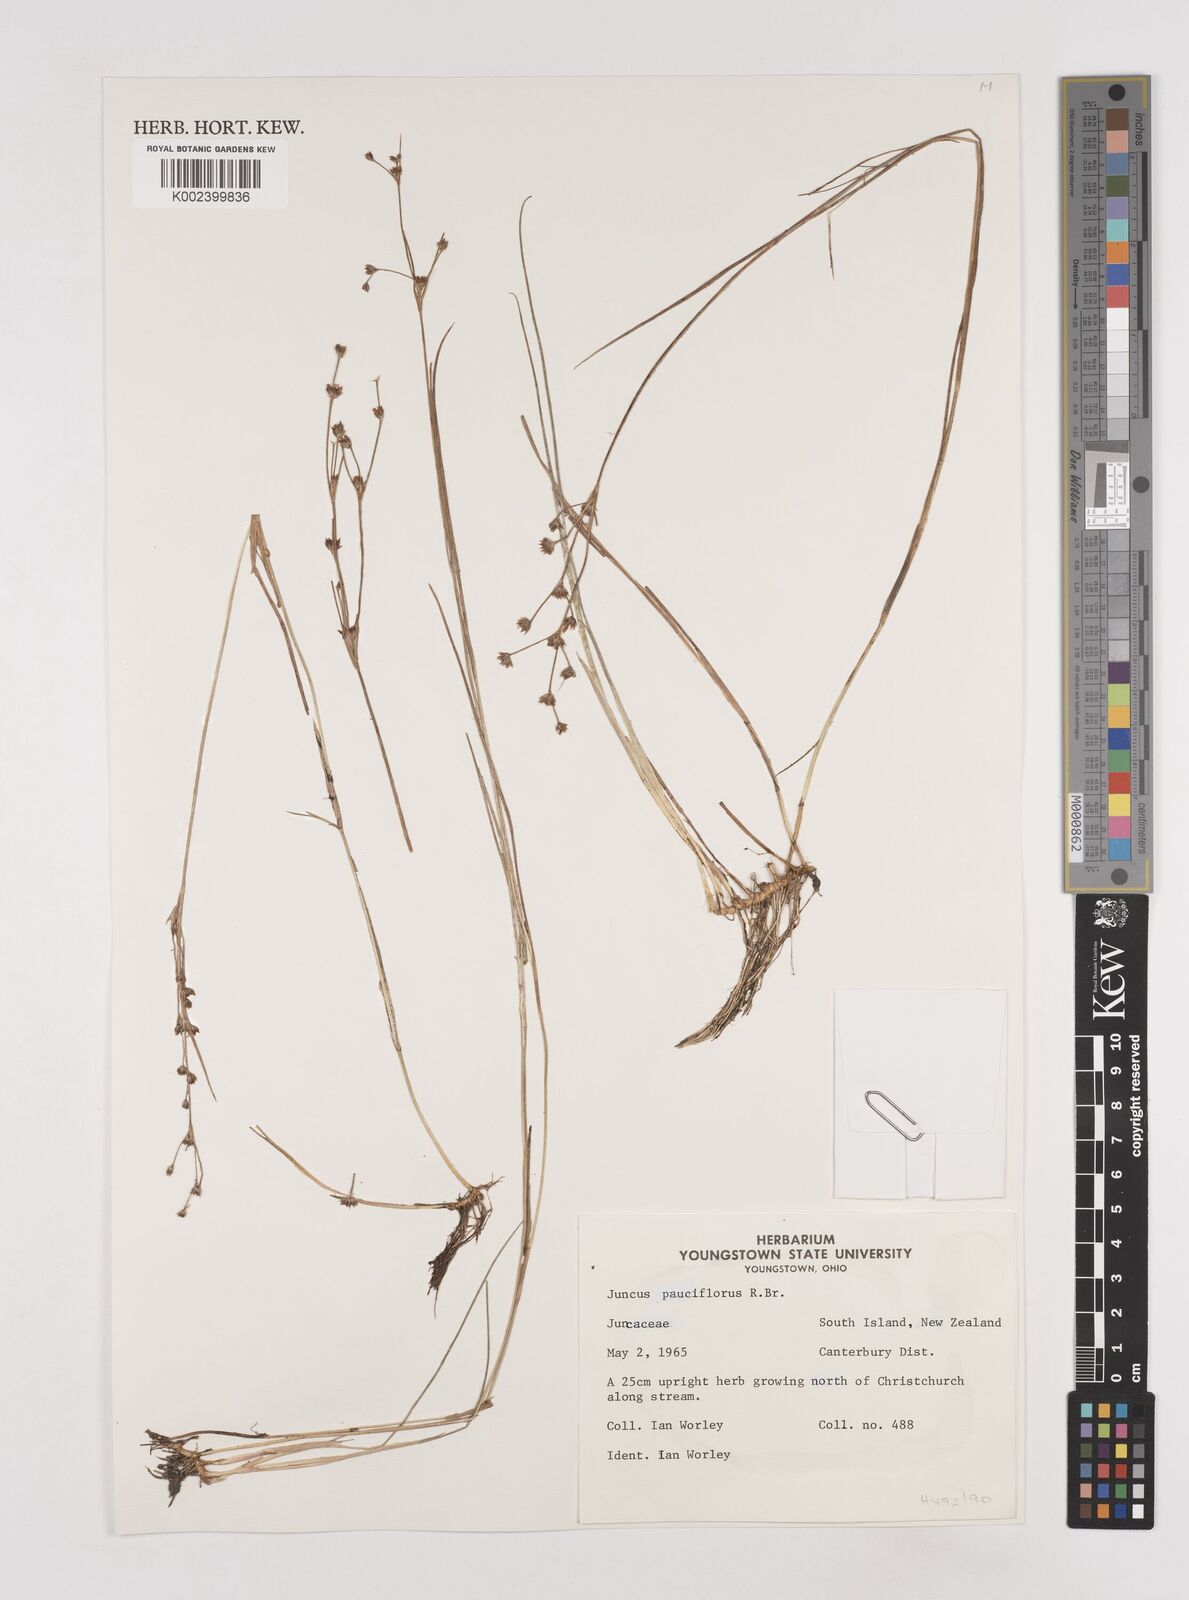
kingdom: Plantae
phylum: Tracheophyta
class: Liliopsida
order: Poales
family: Juncaceae
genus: Juncus
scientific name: Juncus pallidus
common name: Great soft-rush
